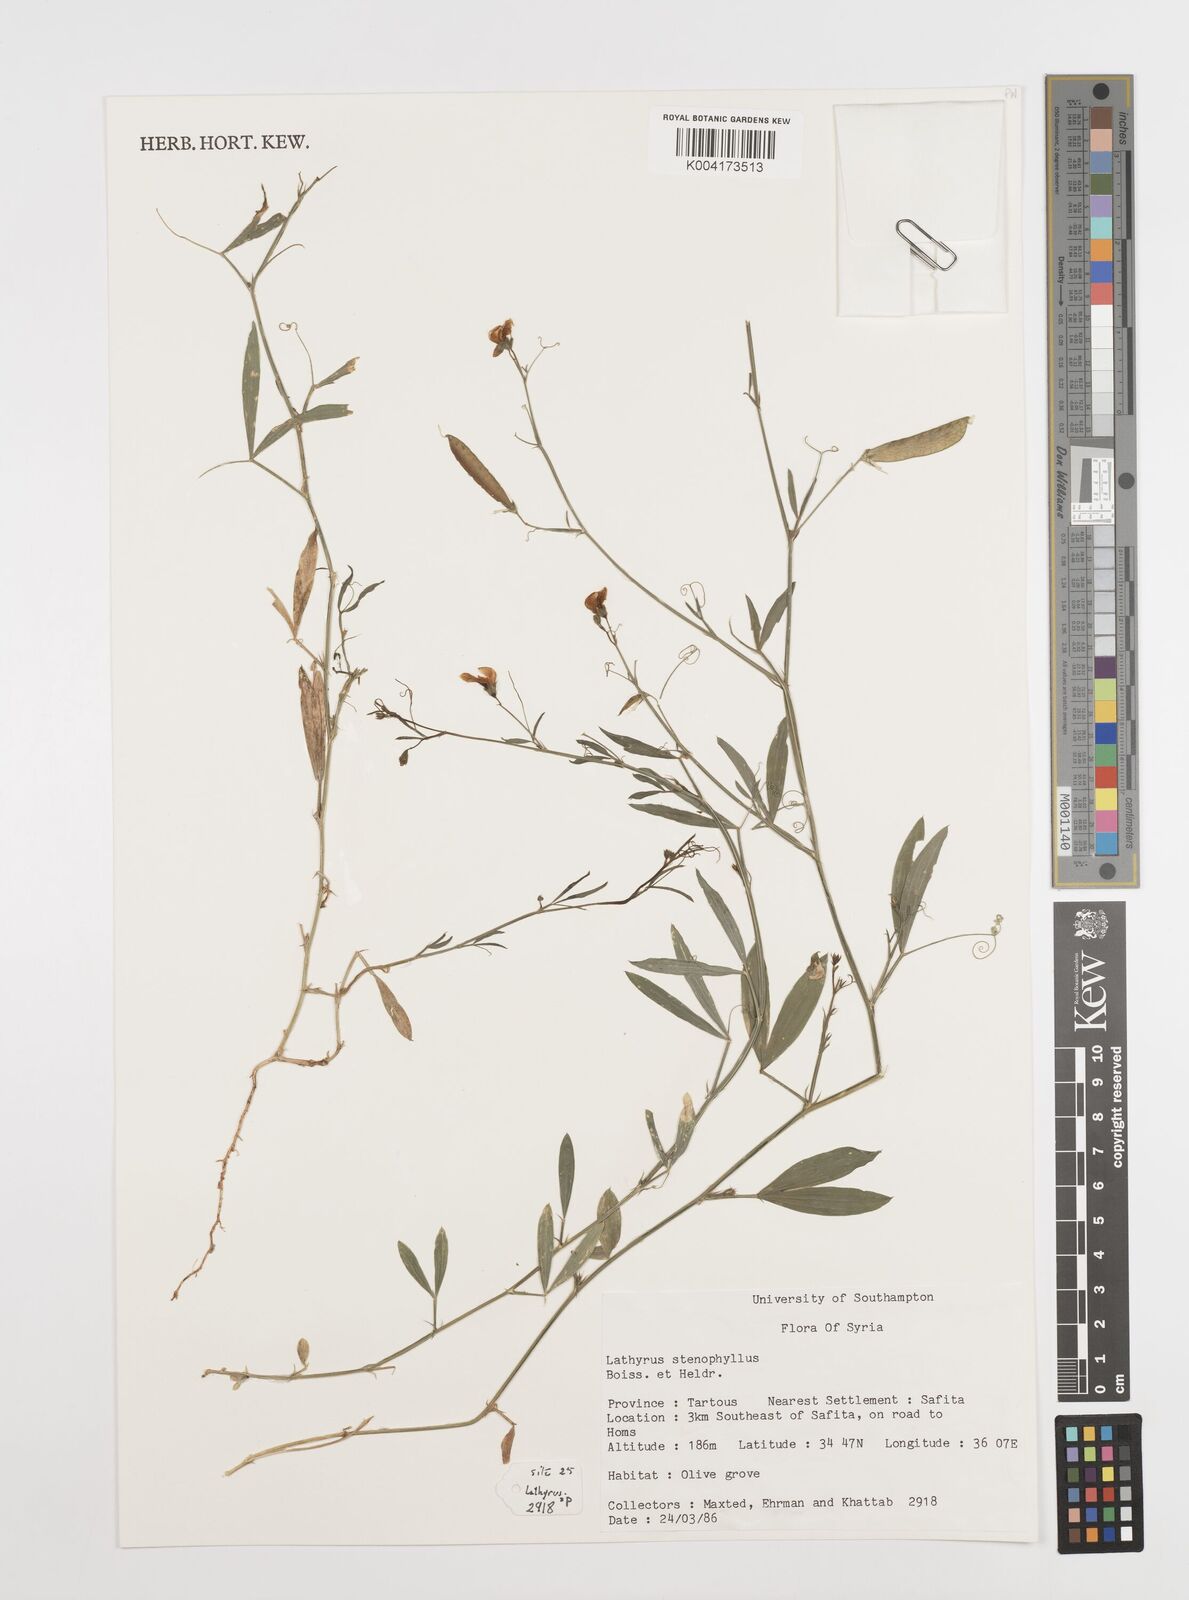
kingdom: Plantae
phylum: Tracheophyta
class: Magnoliopsida
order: Fabales
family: Fabaceae
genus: Lathyrus
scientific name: Lathyrus stenophyllus
